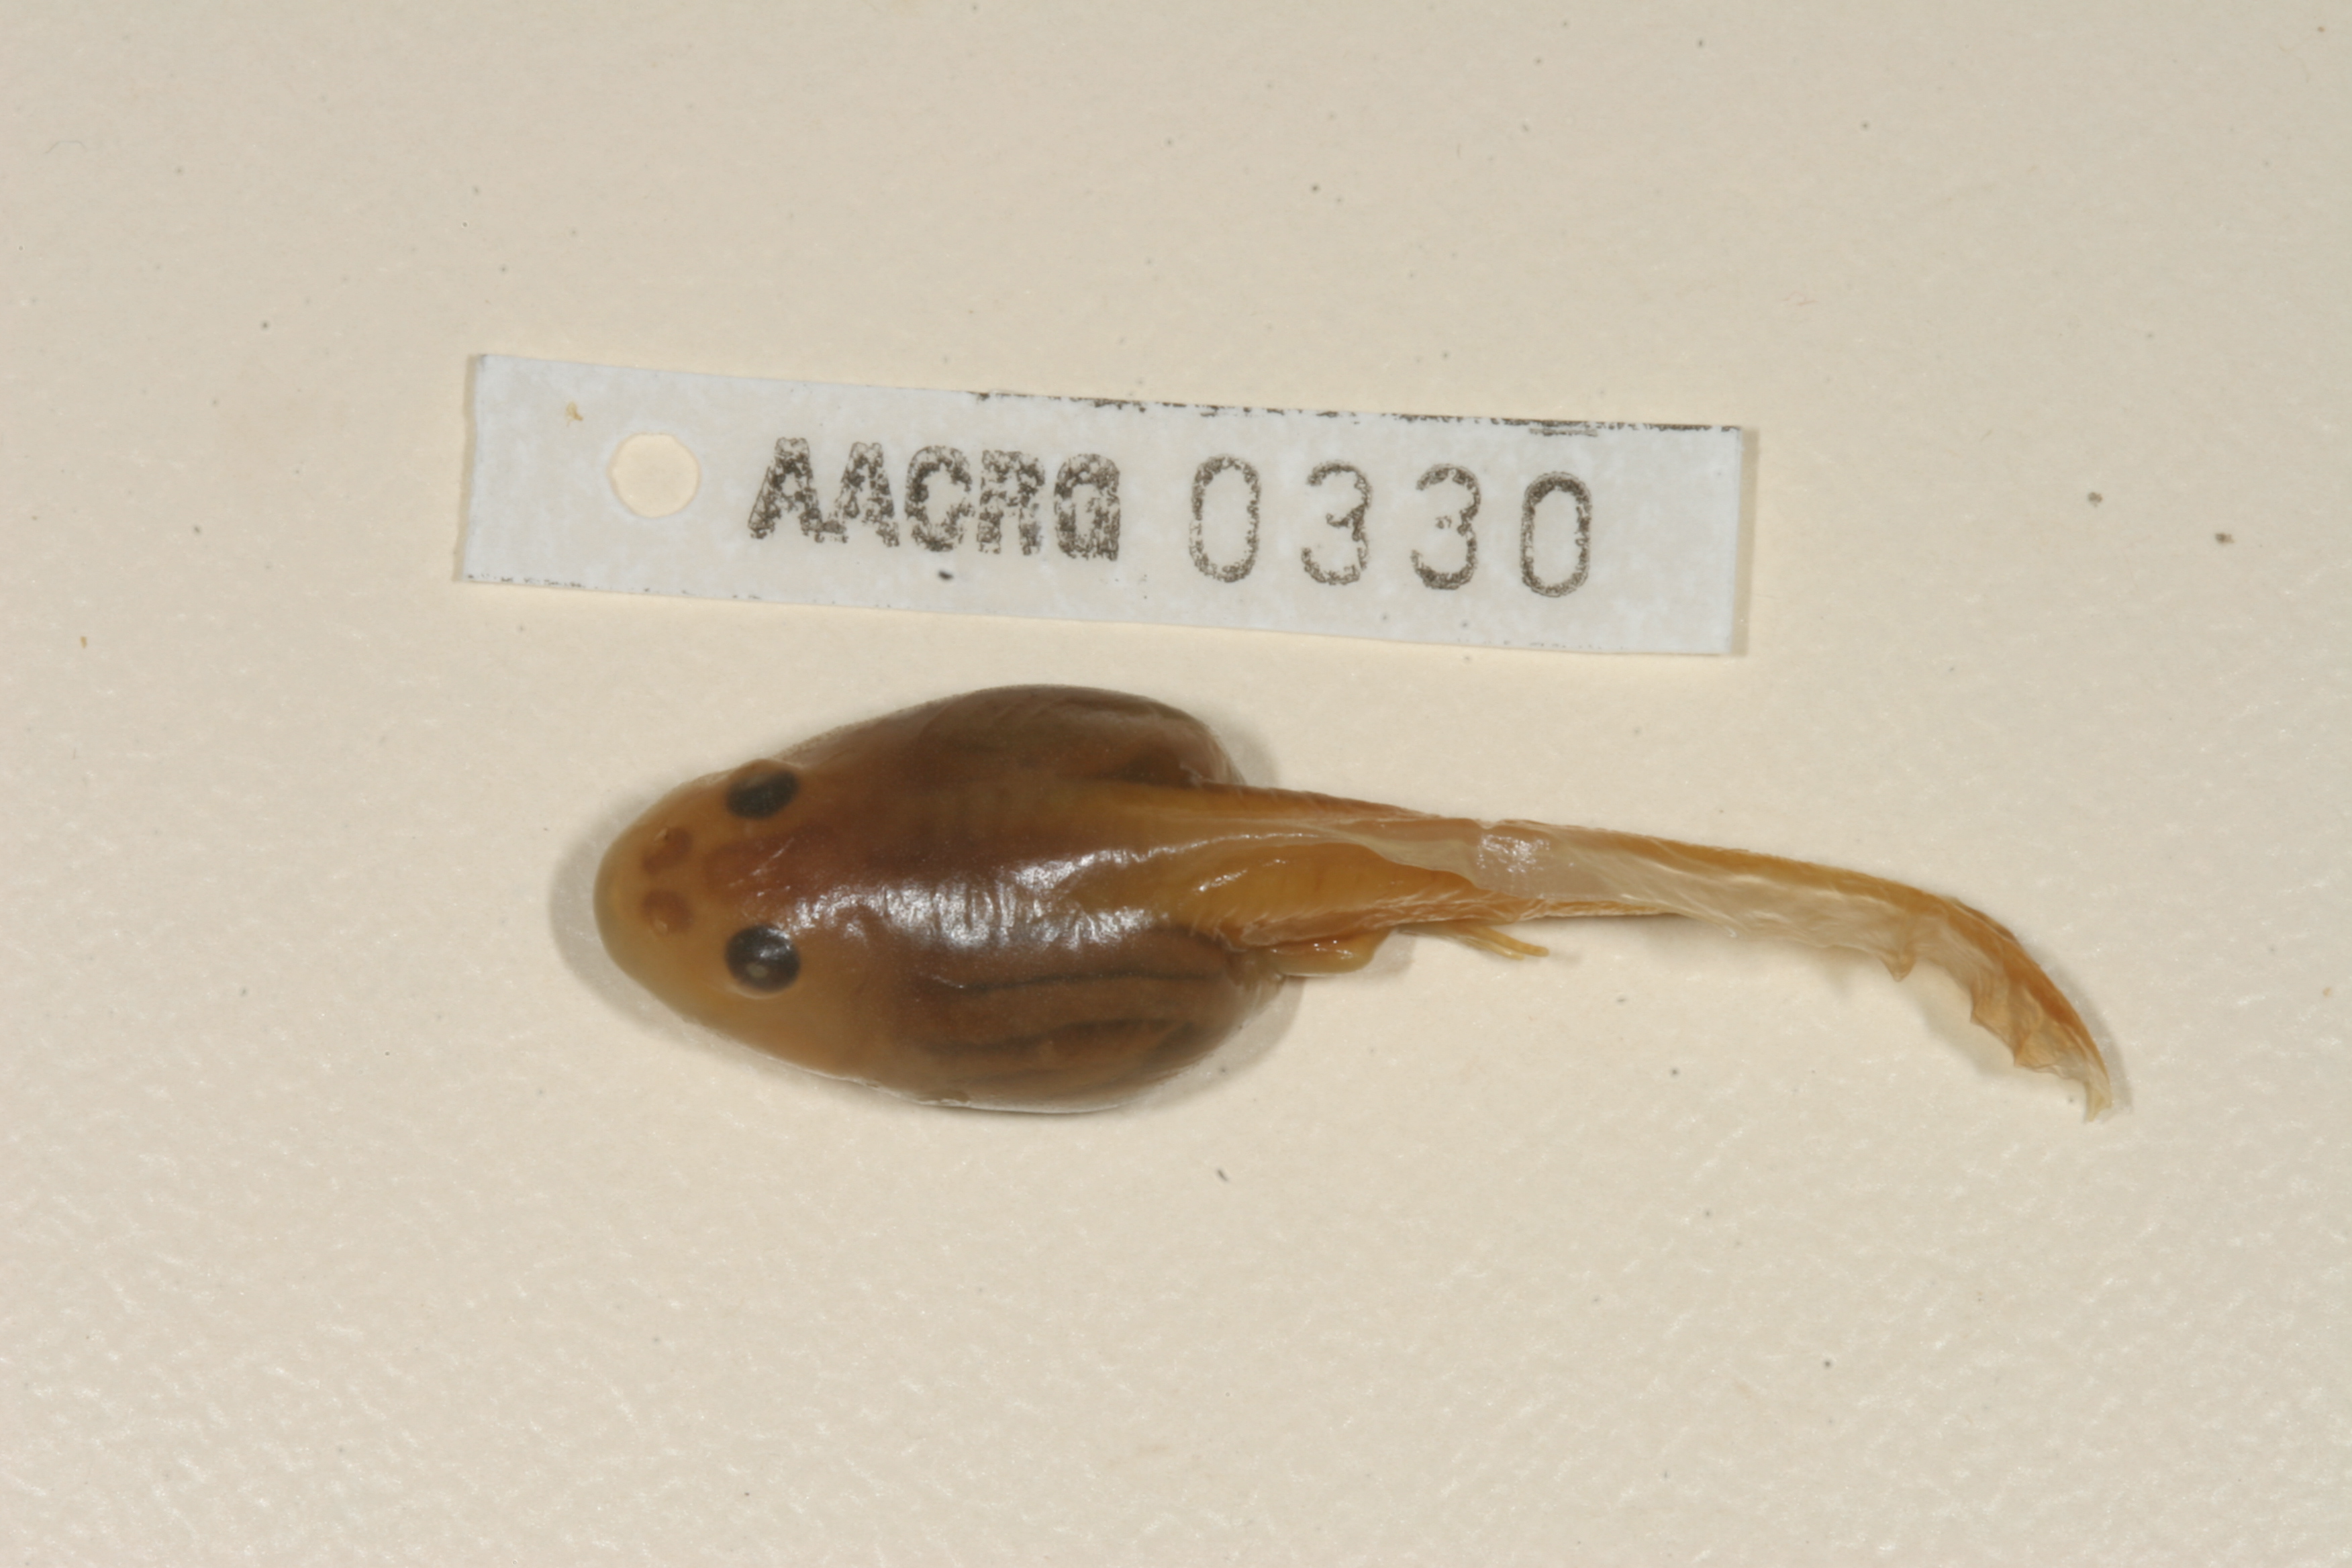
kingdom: Animalia
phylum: Chordata
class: Amphibia
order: Anura
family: Pyxicephalidae
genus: Strongylopus
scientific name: Strongylopus grayii
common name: Gray's stream frog
